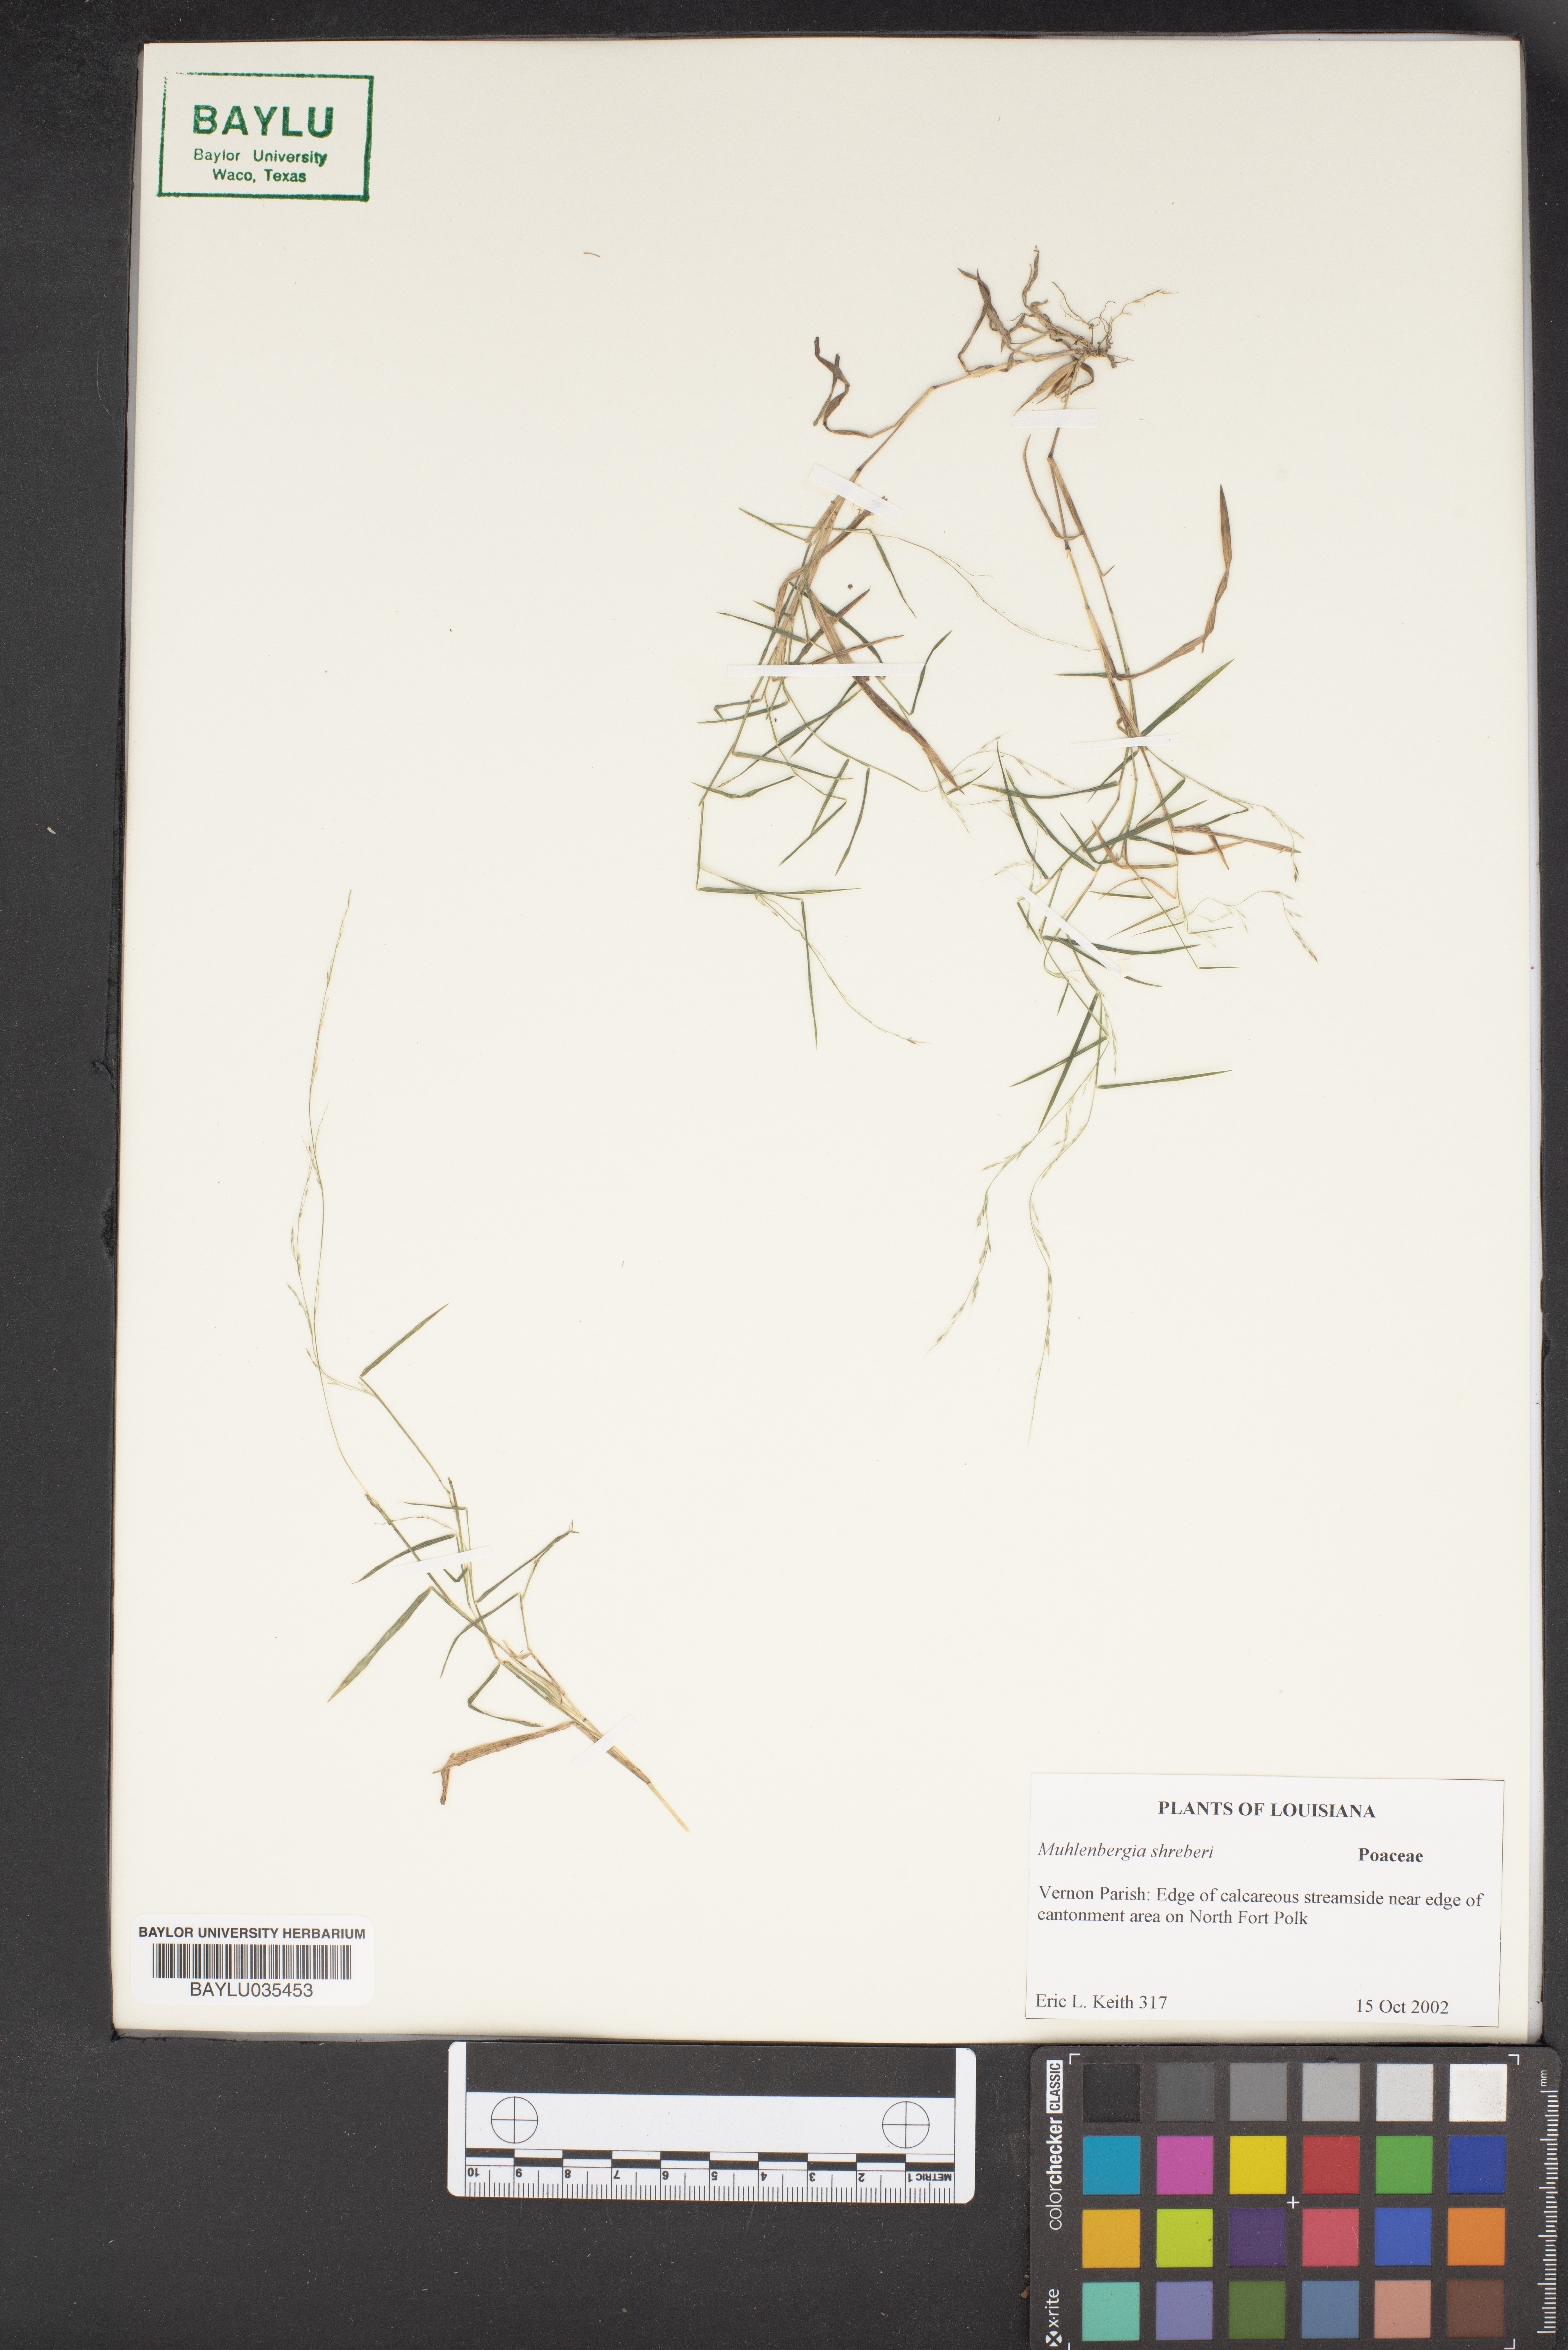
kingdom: Plantae
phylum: Tracheophyta
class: Liliopsida
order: Poales
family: Poaceae
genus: Muhlenbergia
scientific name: Muhlenbergia schreberi
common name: Nimblewill
